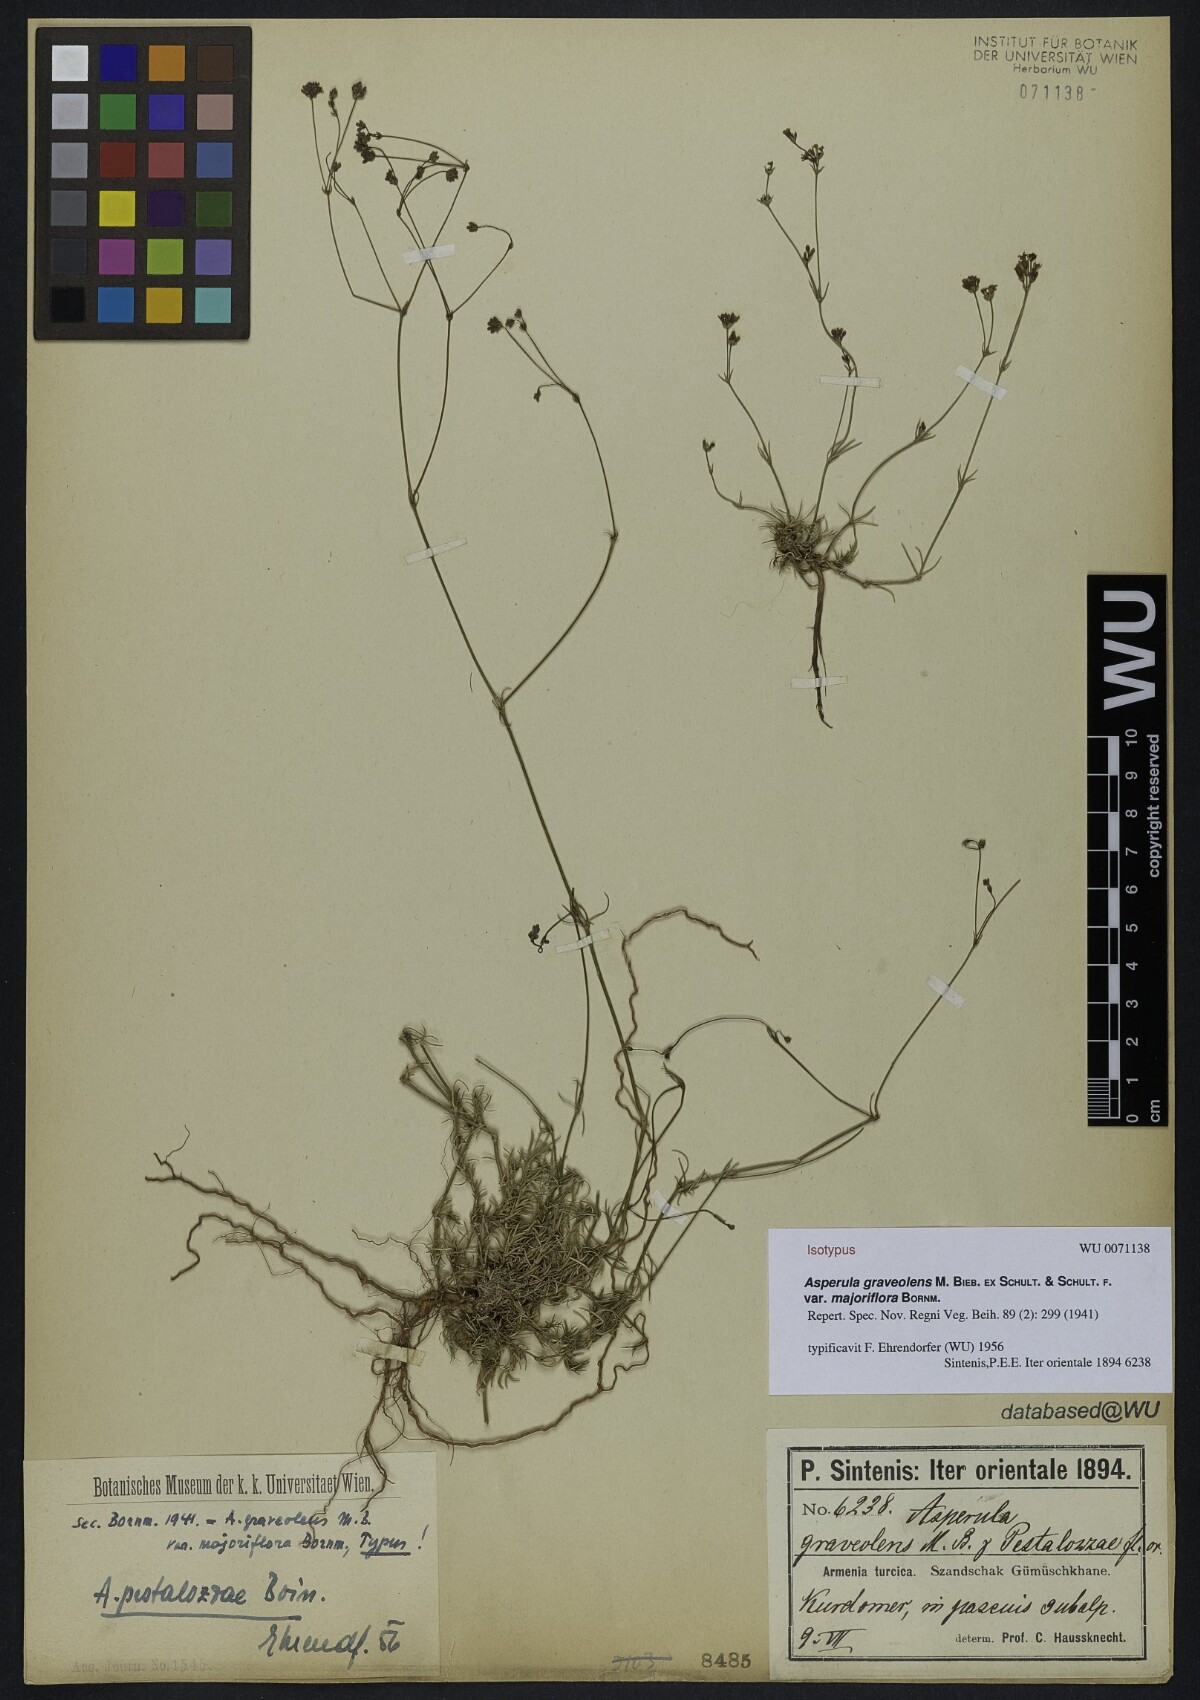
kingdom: Plantae
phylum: Tracheophyta
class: Magnoliopsida
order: Gentianales
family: Rubiaceae
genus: Cynanchica
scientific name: Cynanchica pestalozzae
